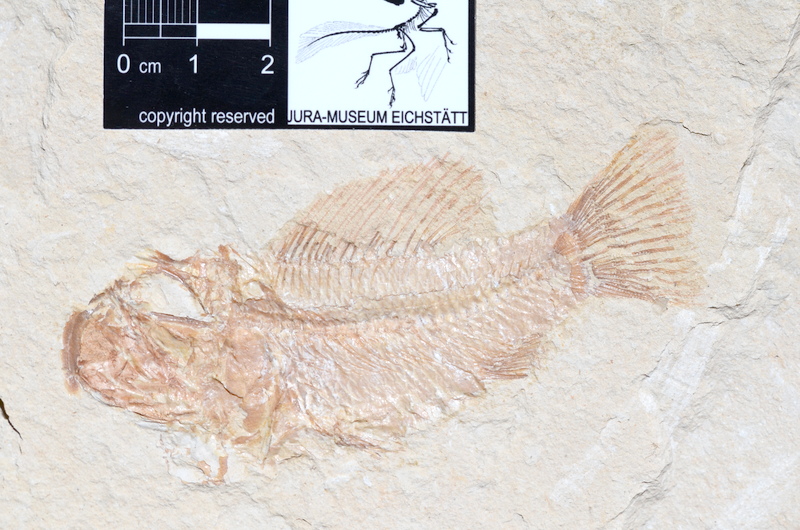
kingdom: Animalia
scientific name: Animalia
